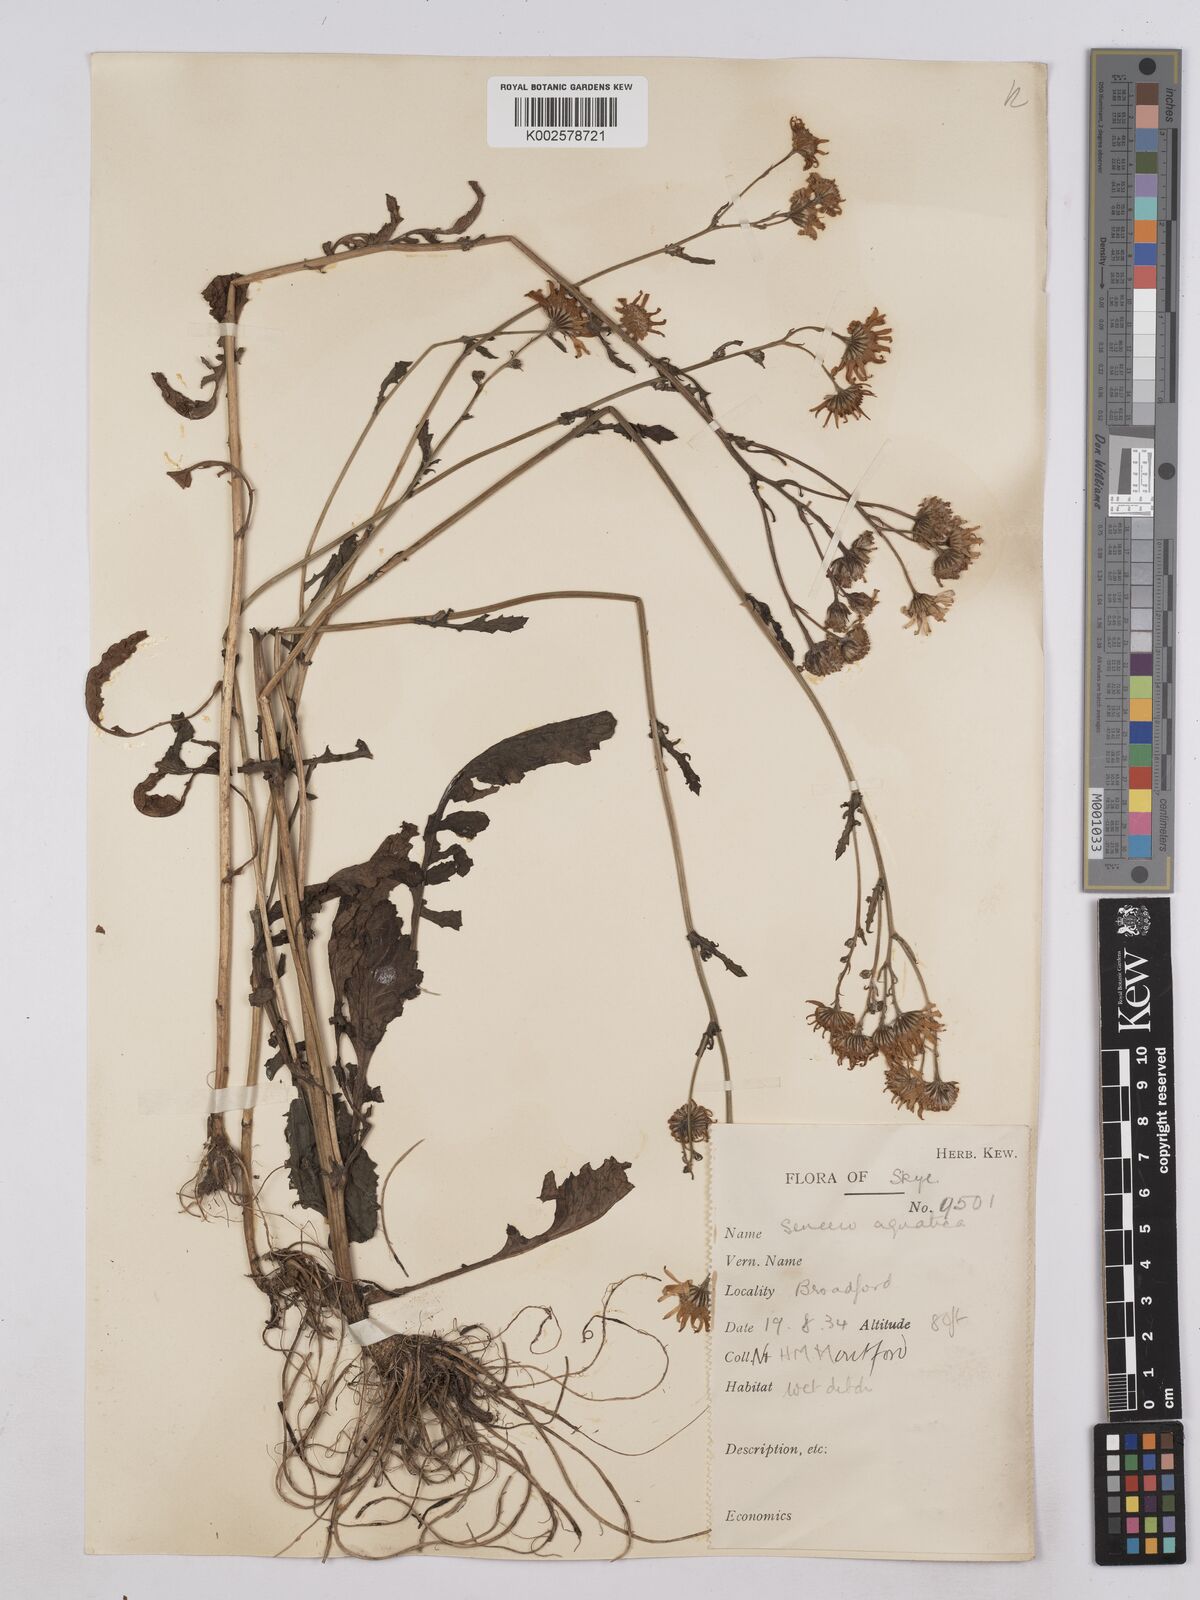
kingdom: Plantae
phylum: Tracheophyta
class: Magnoliopsida
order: Asterales
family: Asteraceae
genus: Jacobaea
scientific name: Jacobaea aquatica
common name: Water ragwort
